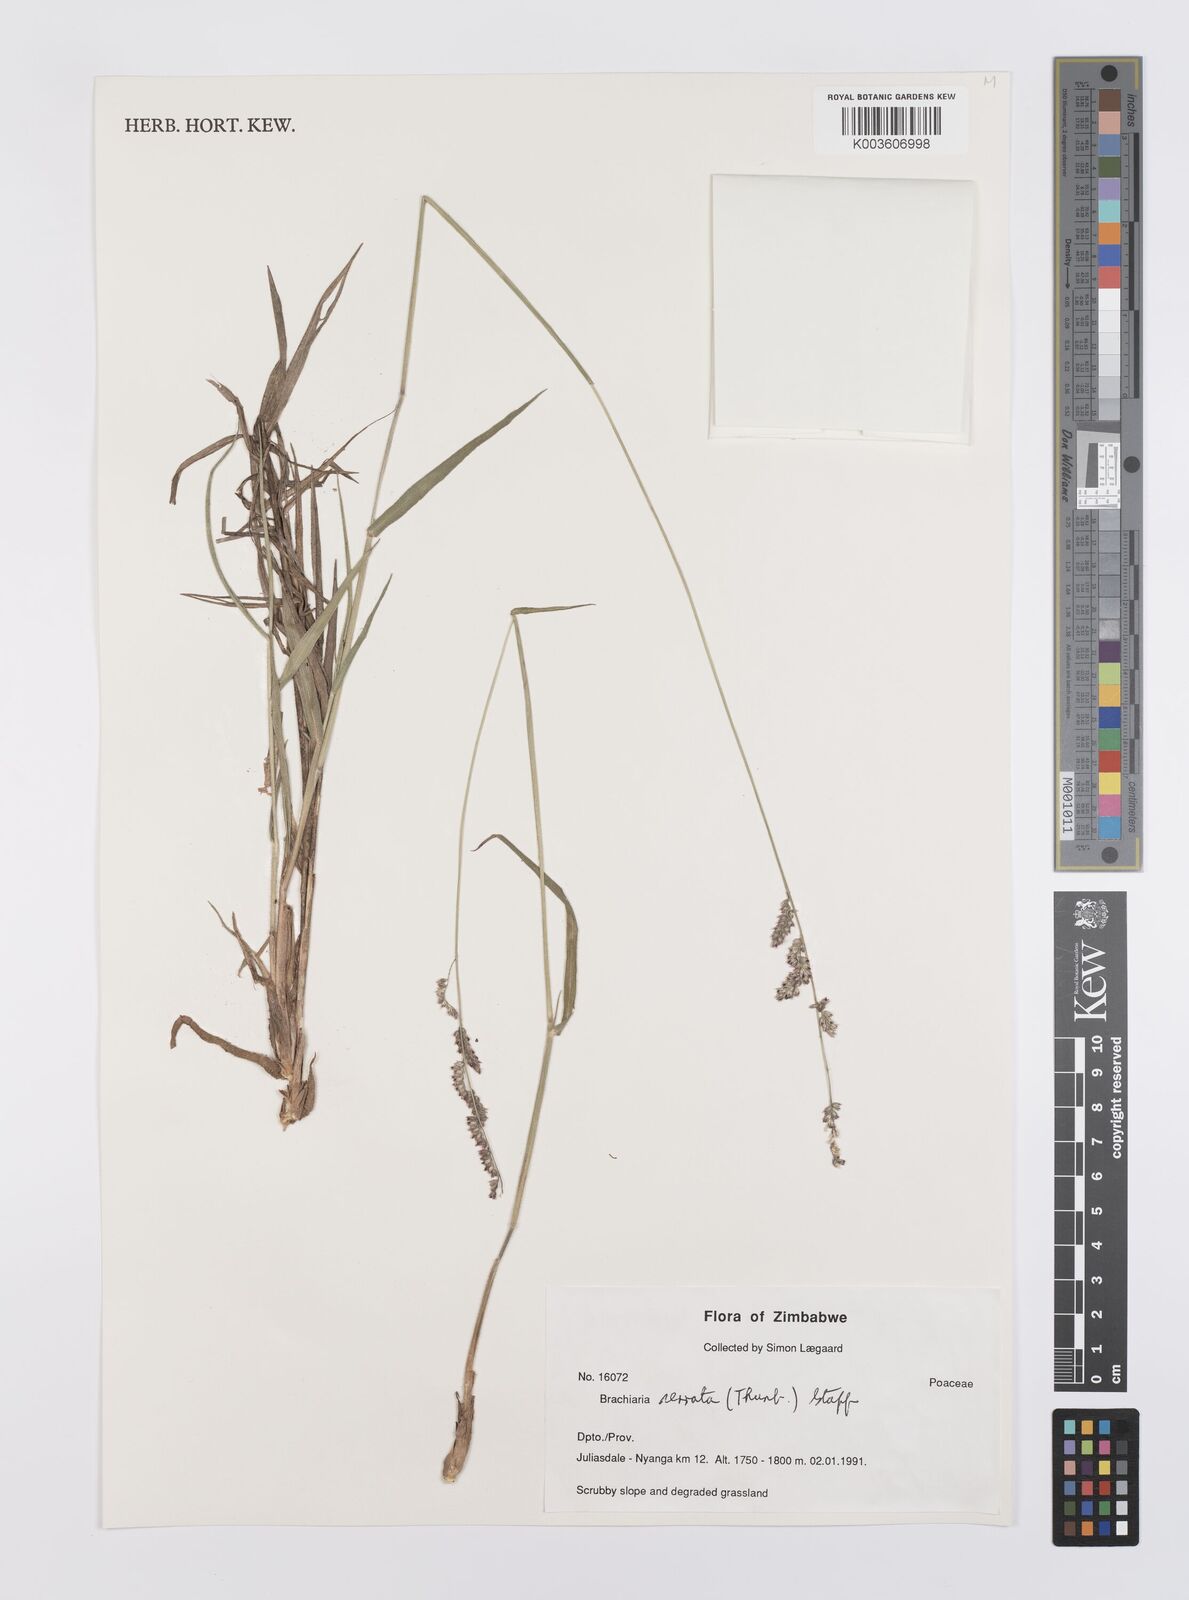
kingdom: Plantae
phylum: Tracheophyta
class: Liliopsida
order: Poales
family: Poaceae
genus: Urochloa
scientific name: Urochloa serrata
